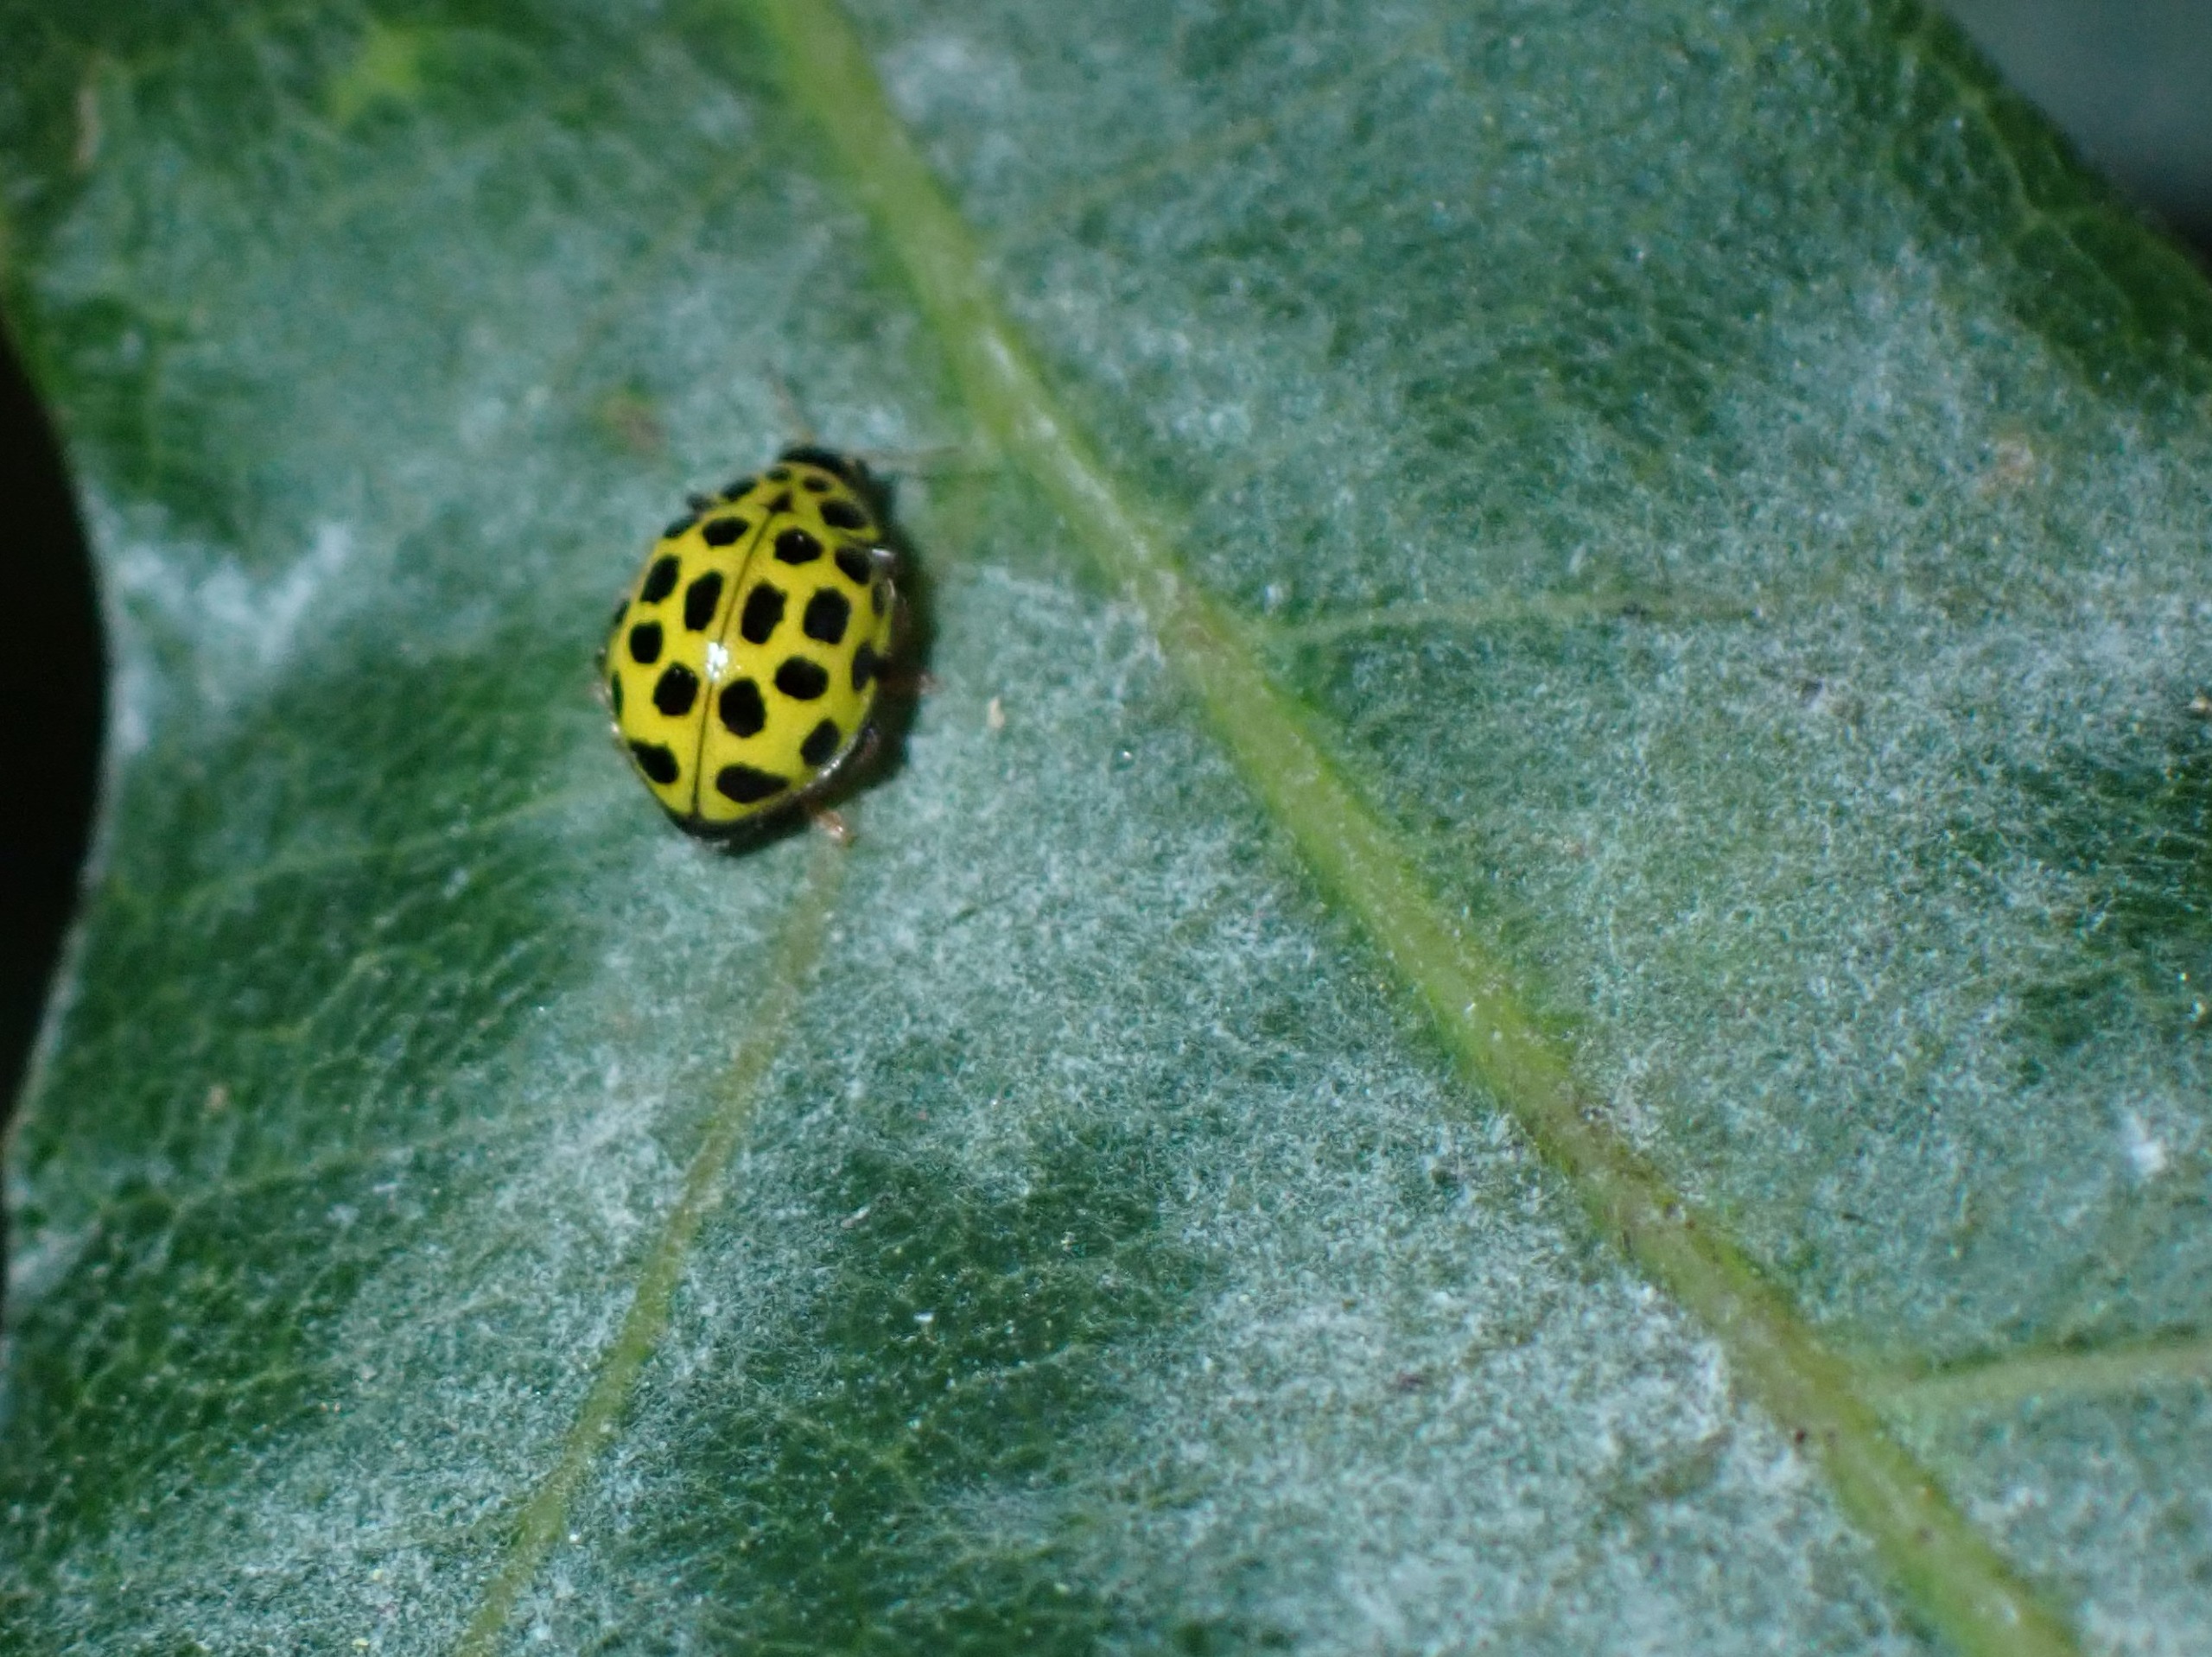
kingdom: Animalia
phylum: Arthropoda
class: Insecta
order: Coleoptera
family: Coccinellidae
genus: Psyllobora
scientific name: Psyllobora vigintiduopunctata
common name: Toogtyveplettet mariehøne
